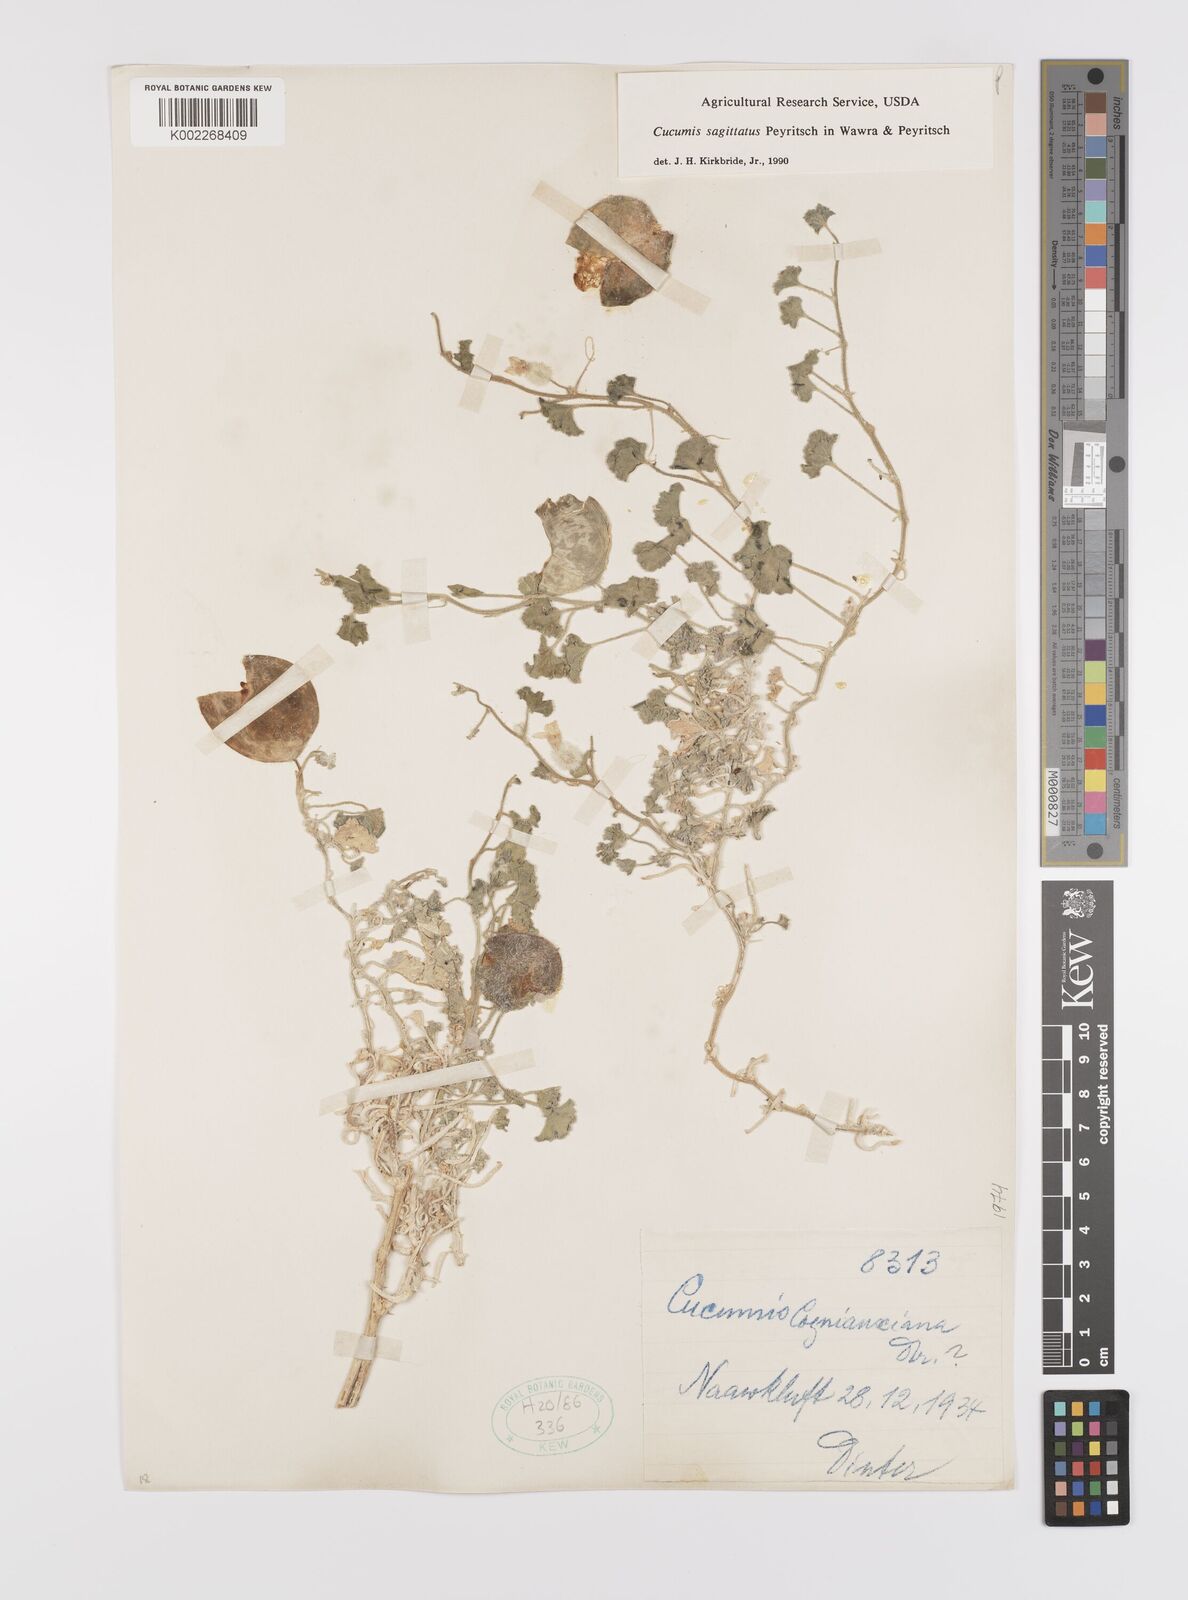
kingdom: Plantae
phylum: Tracheophyta
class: Magnoliopsida
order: Cucurbitales
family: Cucurbitaceae
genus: Cucumis
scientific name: Cucumis sagittatus
